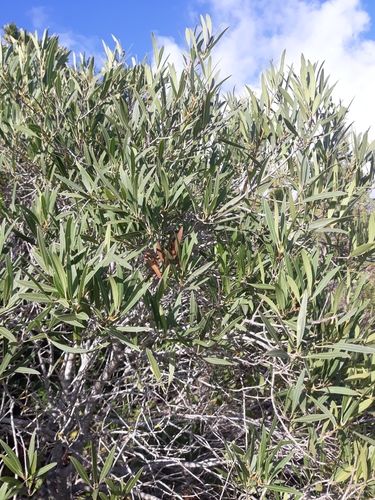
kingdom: Plantae
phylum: Tracheophyta
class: Magnoliopsida
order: Lamiales
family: Oleaceae
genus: Phillyrea
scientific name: Phillyrea angustifolia
